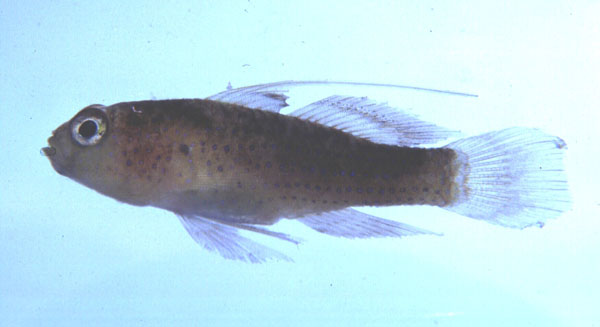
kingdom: Animalia
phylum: Chordata
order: Perciformes
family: Gobiidae
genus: Asterropteryx
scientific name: Asterropteryx ensifera
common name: Blue-speckled rubble goby
